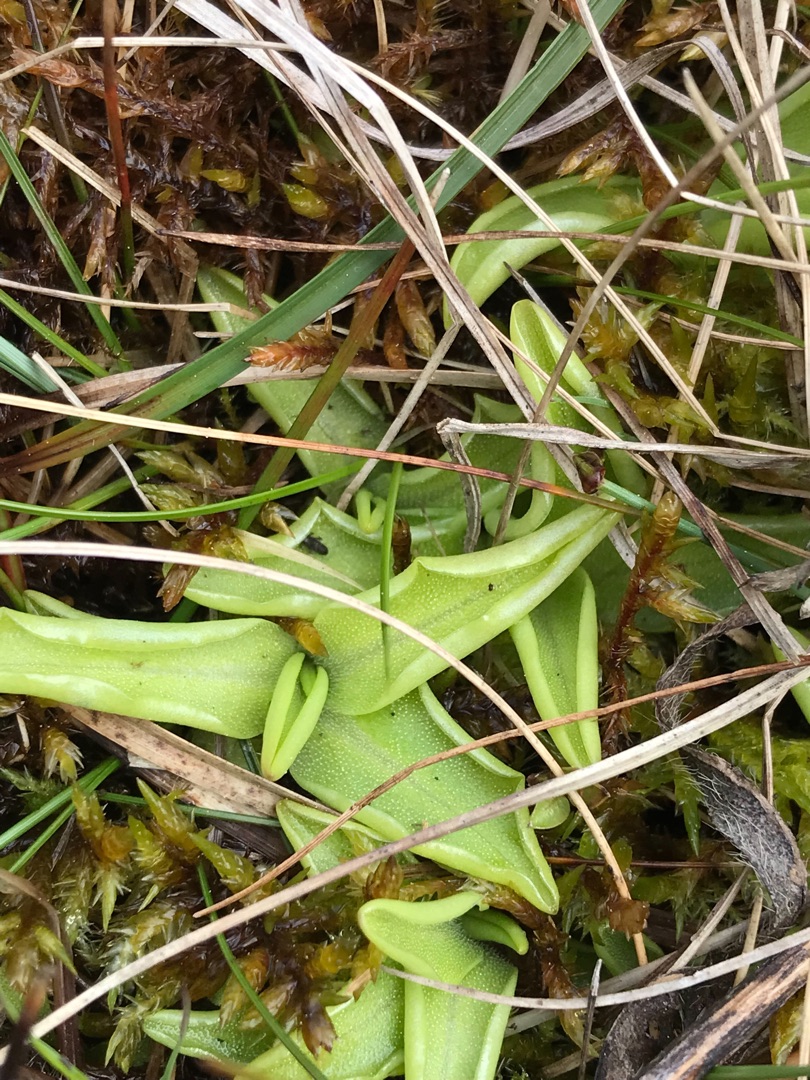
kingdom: Plantae
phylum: Tracheophyta
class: Magnoliopsida
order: Lamiales
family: Lentibulariaceae
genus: Pinguicula
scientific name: Pinguicula vulgaris
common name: Vibefedt
